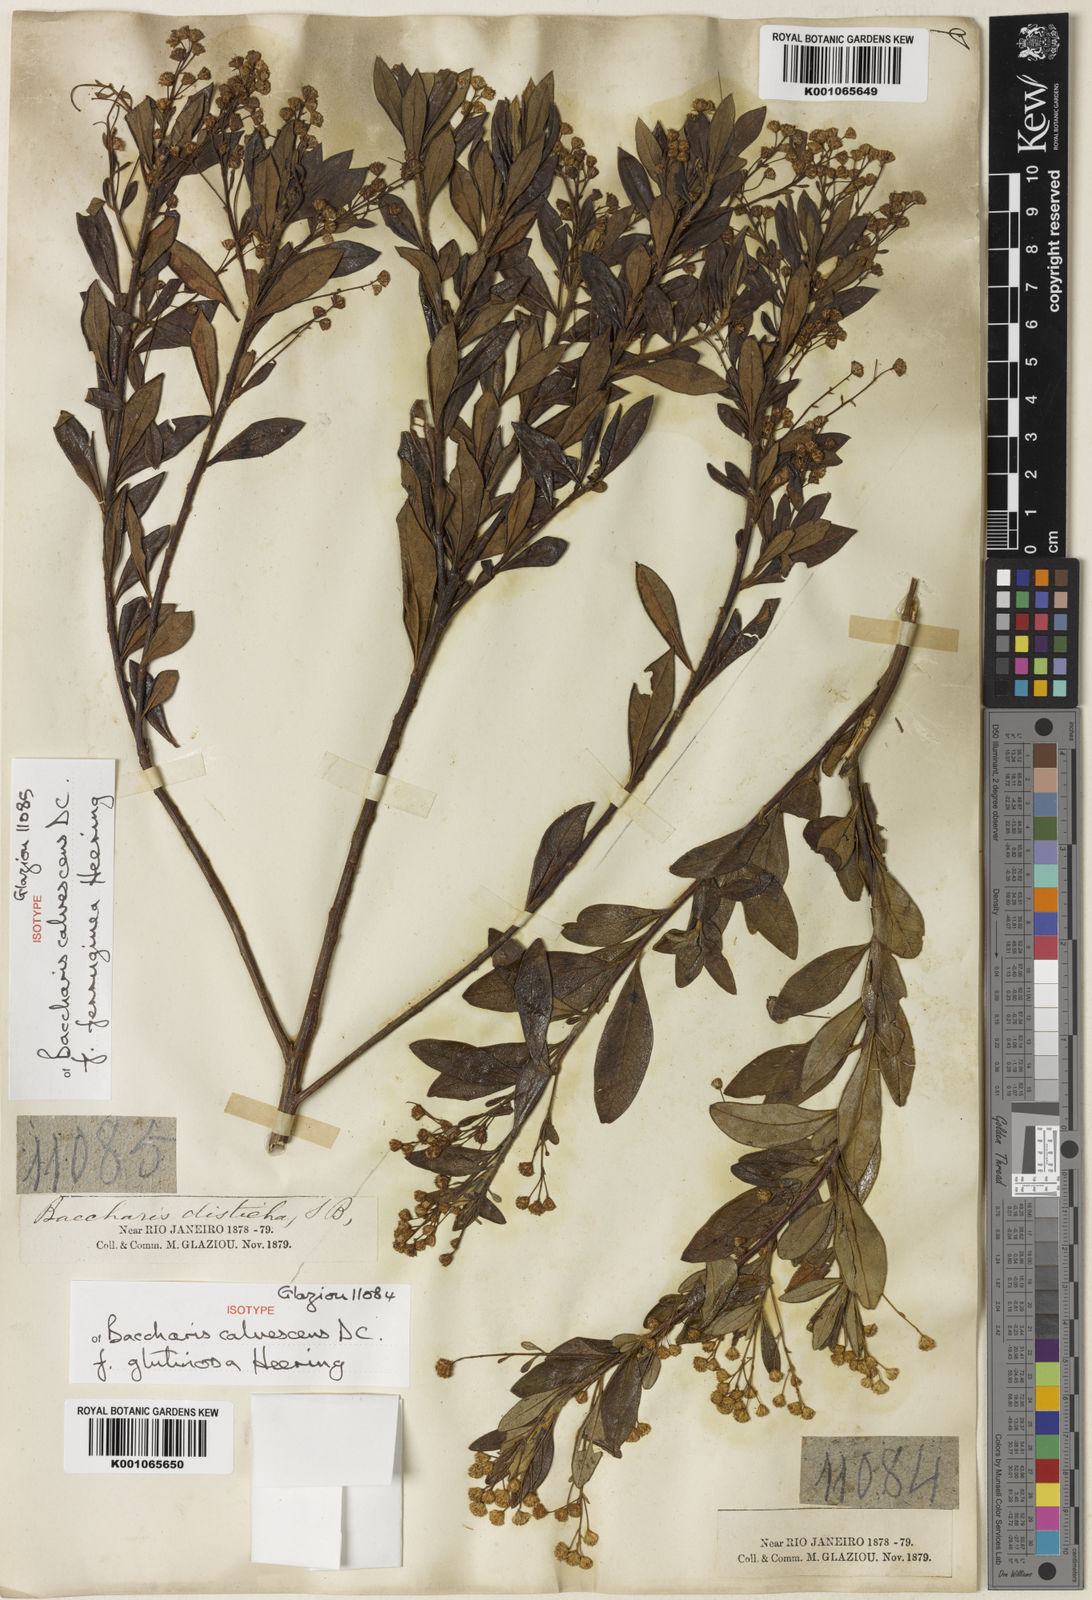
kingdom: Plantae
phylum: Tracheophyta
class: Magnoliopsida
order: Asterales
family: Asteraceae
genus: Baccharis
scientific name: Baccharis calvescens
